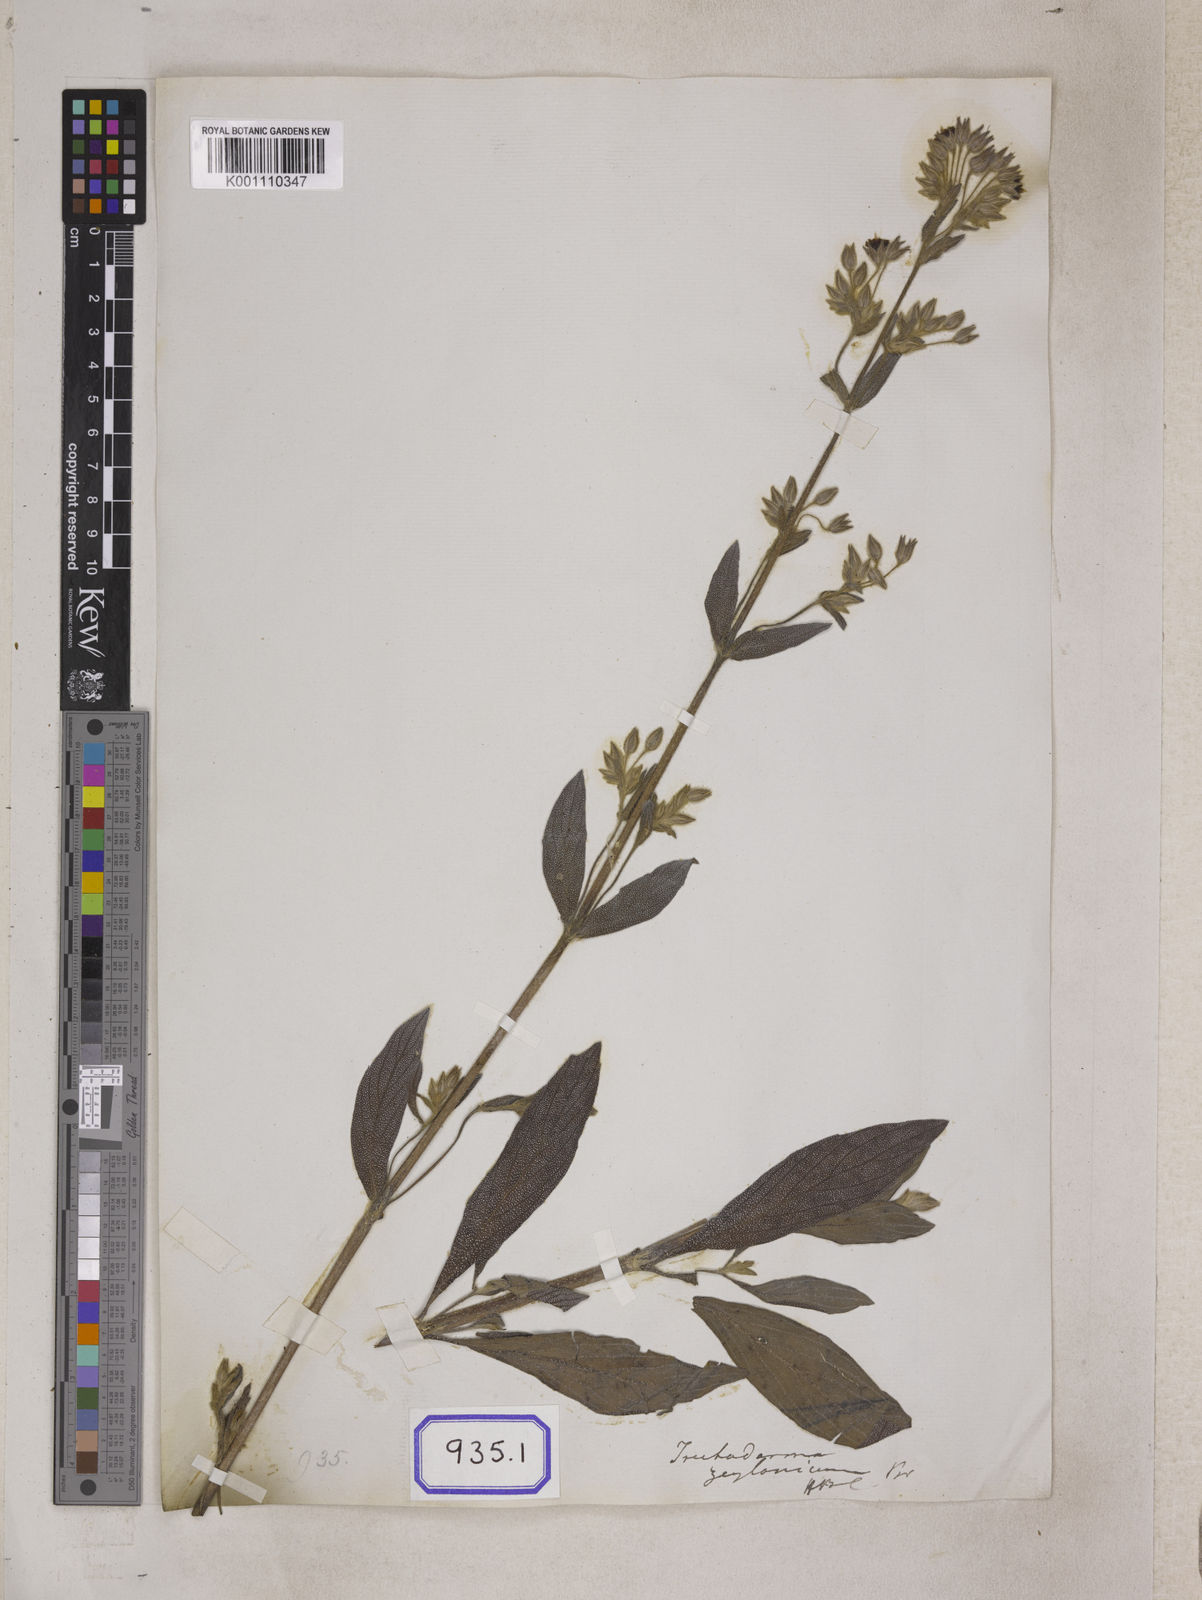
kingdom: Plantae
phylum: Tracheophyta
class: Magnoliopsida
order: Boraginales
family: Boraginaceae
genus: Trichodesma
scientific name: Trichodesma zeylanicum
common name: Camelbush
